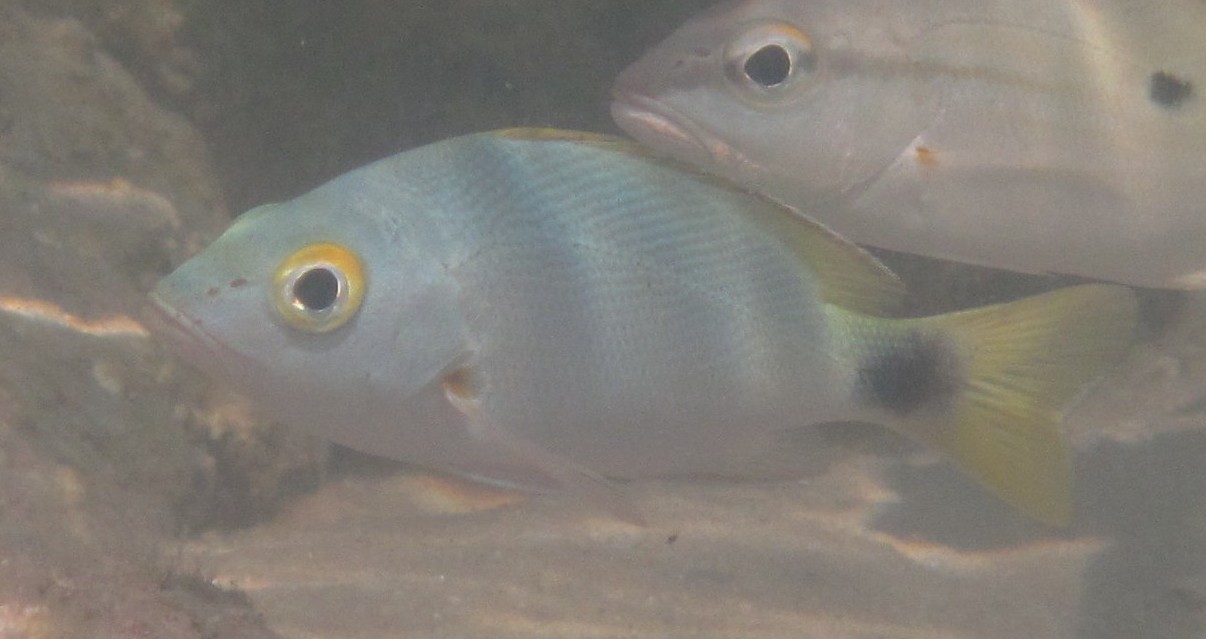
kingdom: Animalia
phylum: Chordata
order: Perciformes
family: Lutjanidae
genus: Lutjanus
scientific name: Lutjanus gibbus
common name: Humpback snapper
